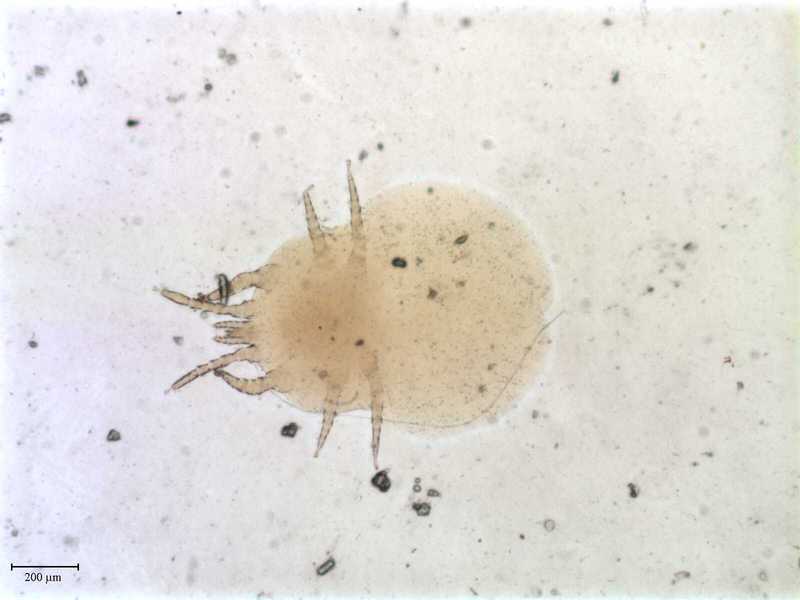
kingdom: Animalia
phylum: Arthropoda
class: Arachnida
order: Mesostigmata
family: Macronyssidae
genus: Chiroptonyssus
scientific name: Chiroptonyssus venezolanus
